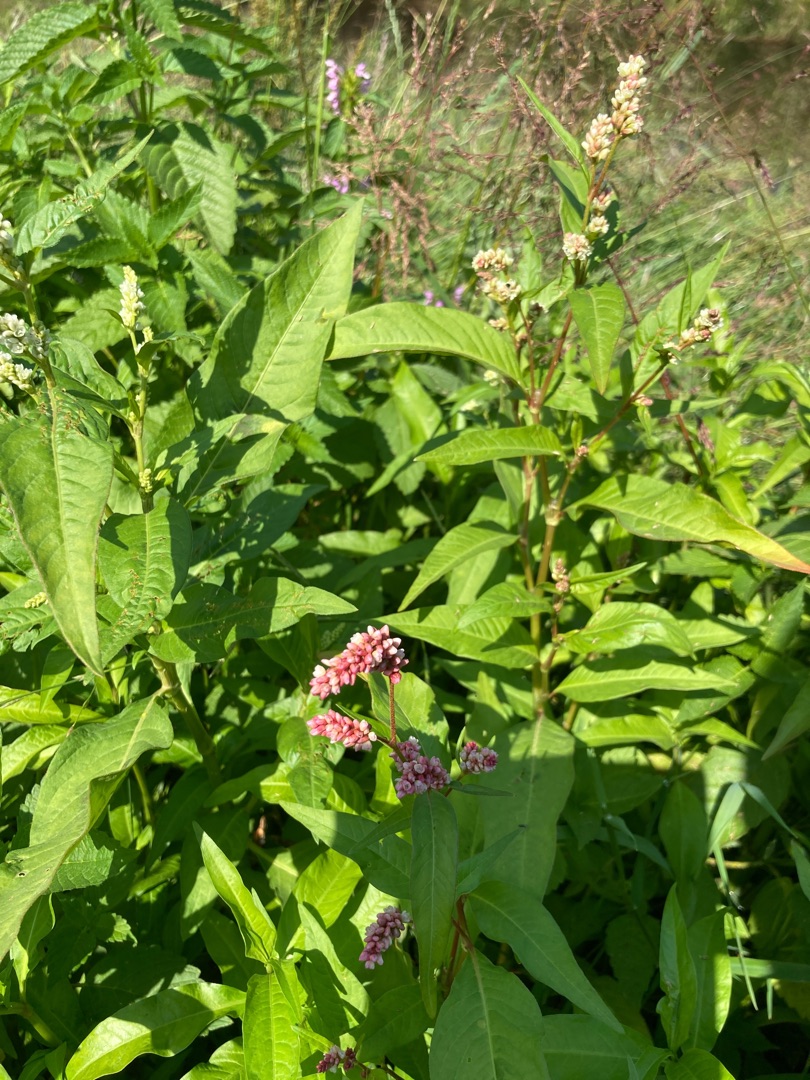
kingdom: Plantae
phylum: Tracheophyta
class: Magnoliopsida
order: Caryophyllales
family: Polygonaceae
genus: Persicaria
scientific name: Persicaria maculosa
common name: Fersken-pileurt
